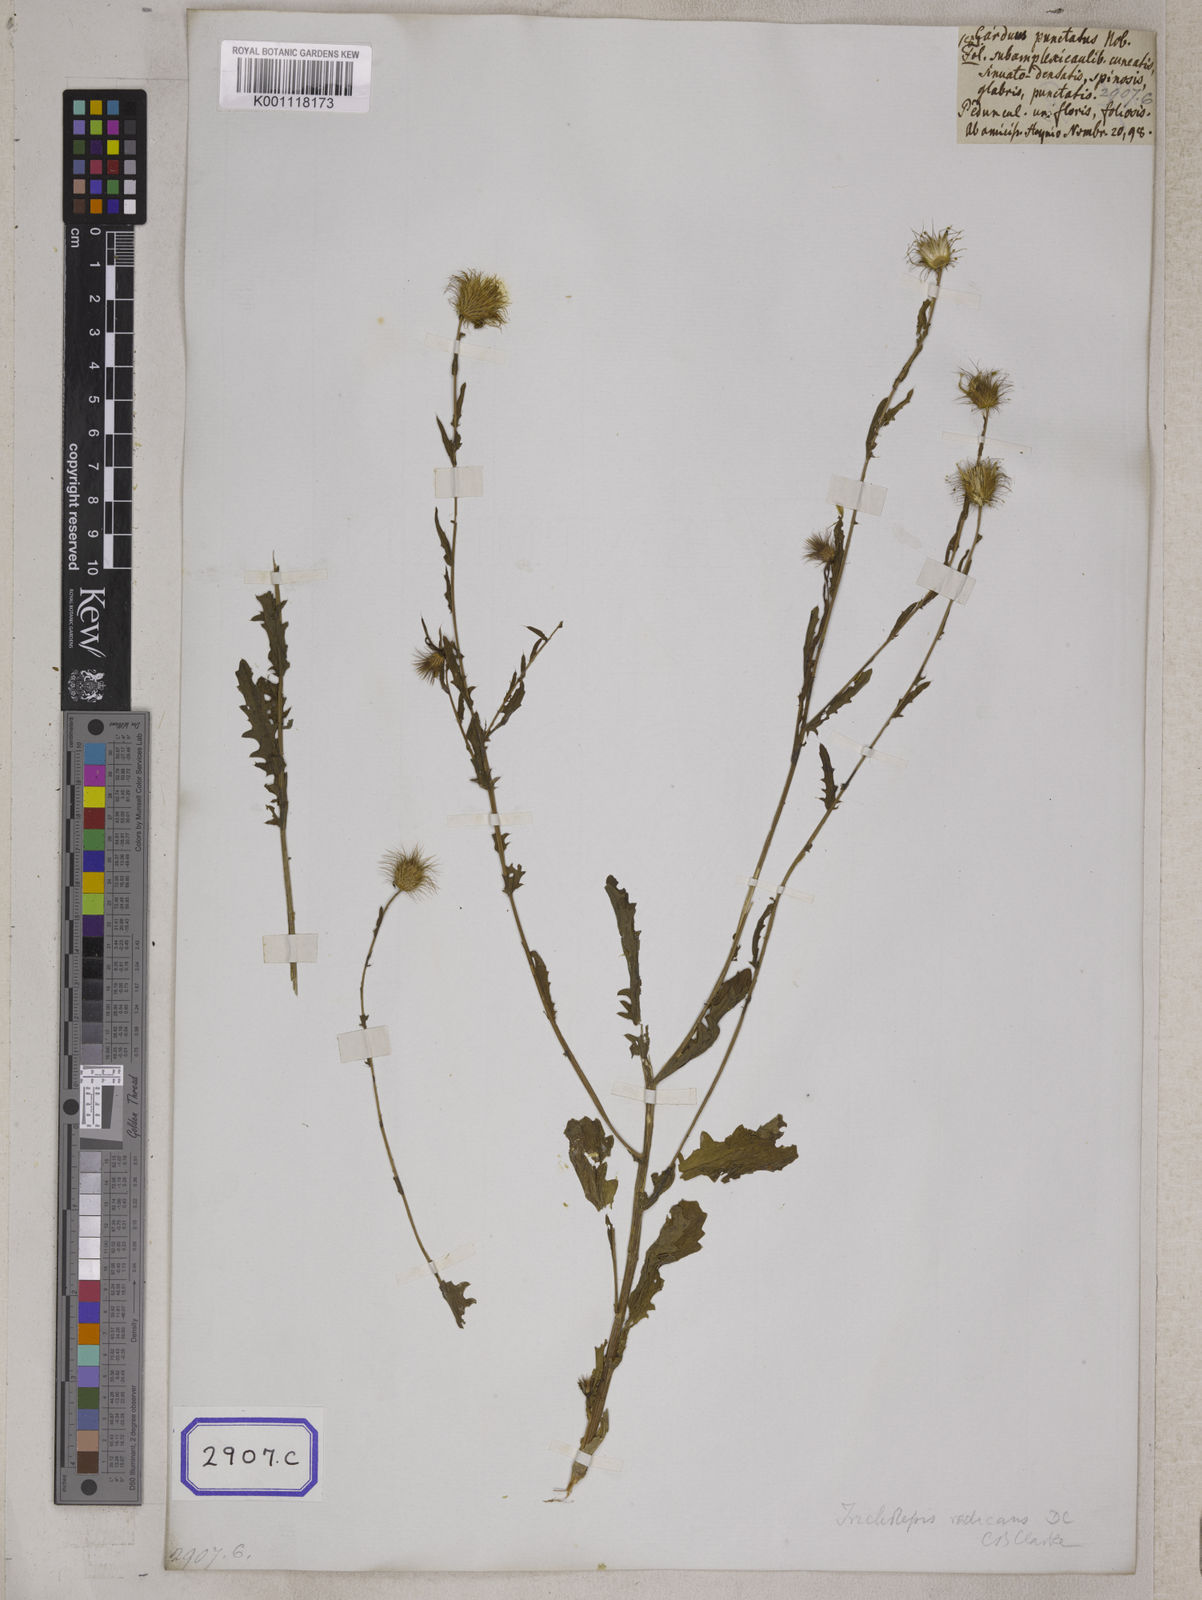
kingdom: Plantae
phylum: Tracheophyta
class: Magnoliopsida
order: Asterales
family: Asteraceae
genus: Tricholepis
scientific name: Tricholepis radicans
